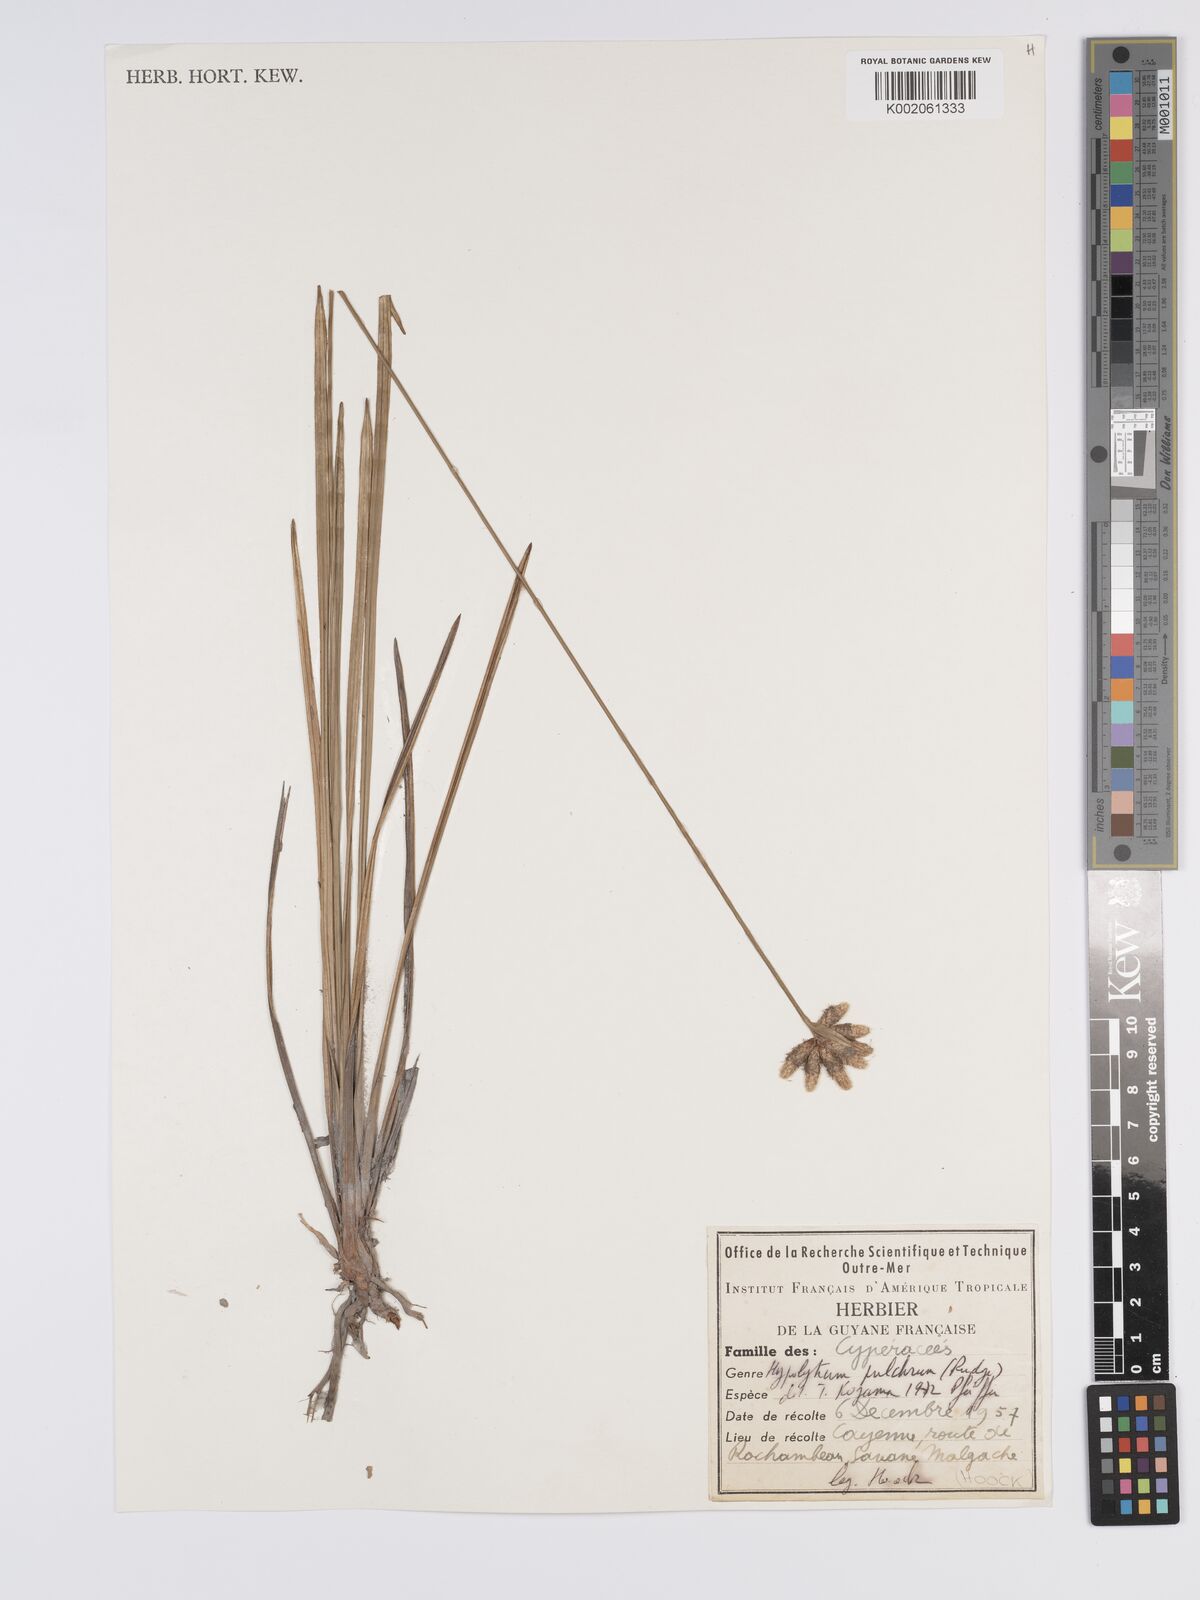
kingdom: Plantae
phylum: Tracheophyta
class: Liliopsida
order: Poales
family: Cyperaceae
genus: Hypolytrum
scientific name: Hypolytrum pulchrum
